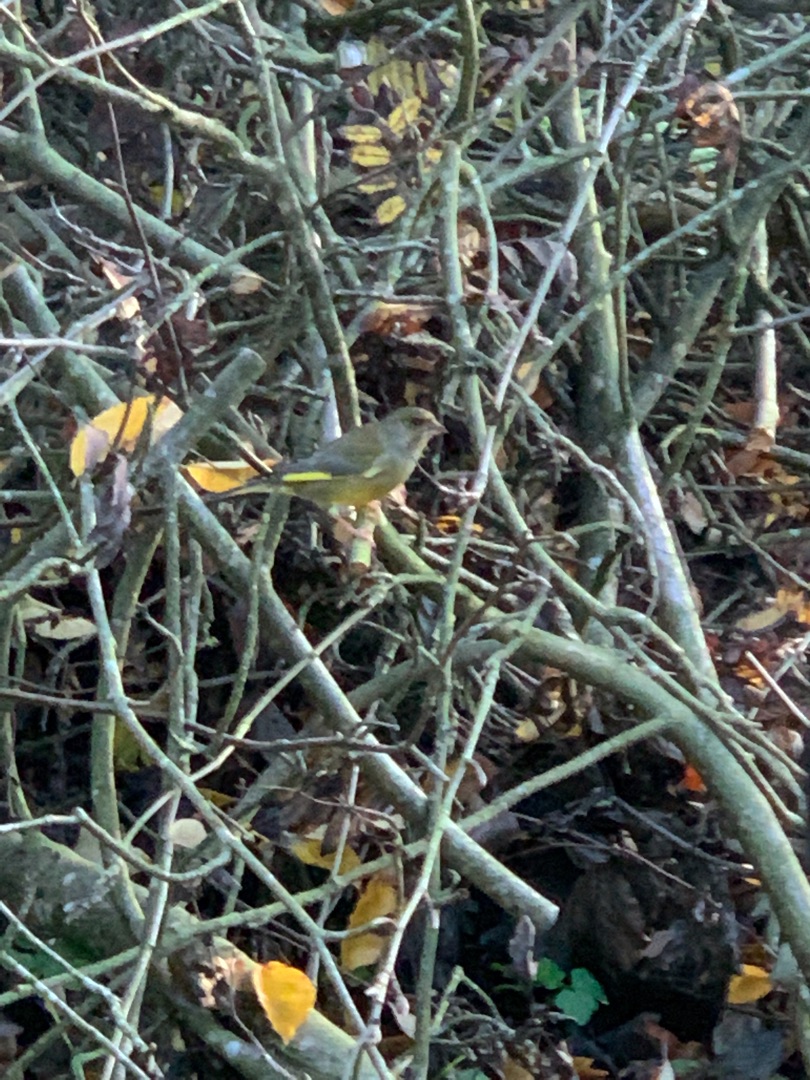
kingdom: Plantae
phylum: Tracheophyta
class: Liliopsida
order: Poales
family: Poaceae
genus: Chloris
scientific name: Chloris chloris
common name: Grønirisk
